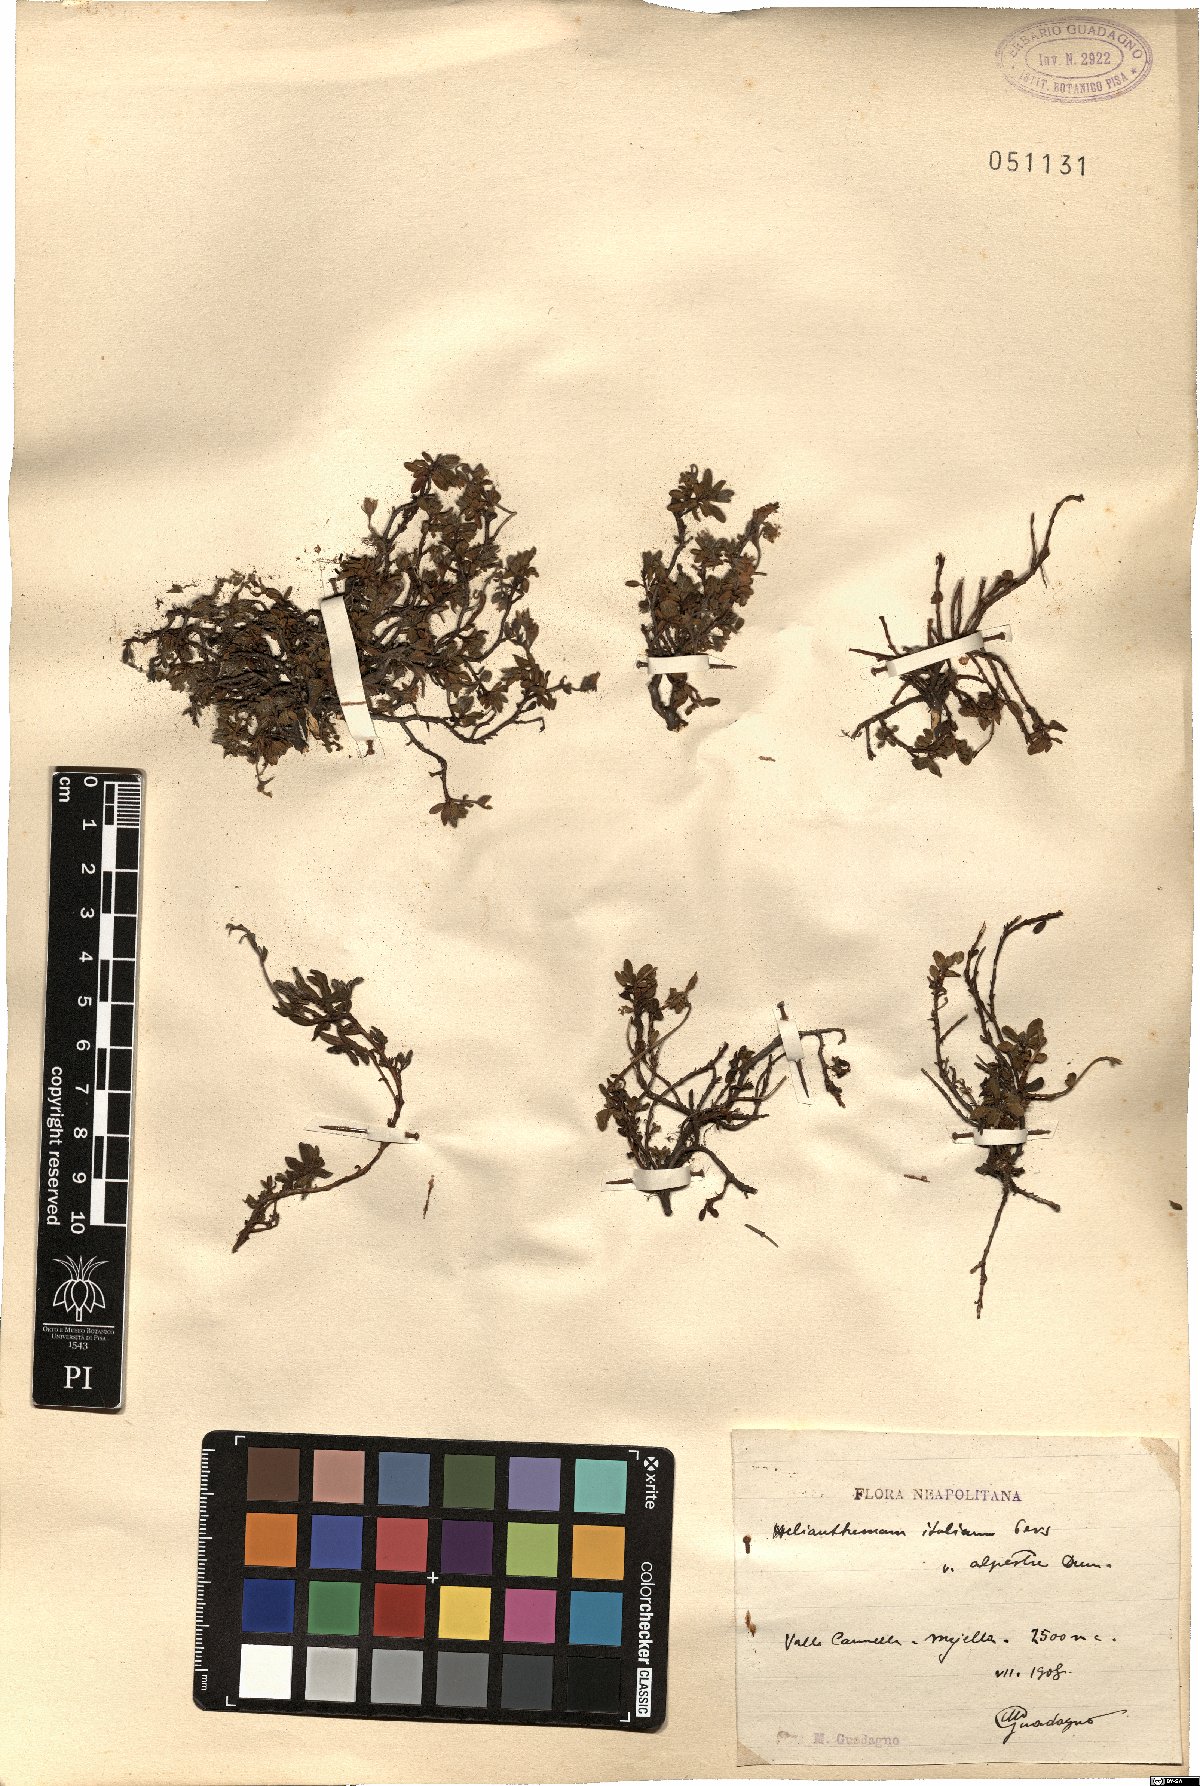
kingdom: Plantae
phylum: Tracheophyta
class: Magnoliopsida
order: Malvales
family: Cistaceae
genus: Helianthemum
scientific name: Helianthemum alpestre
